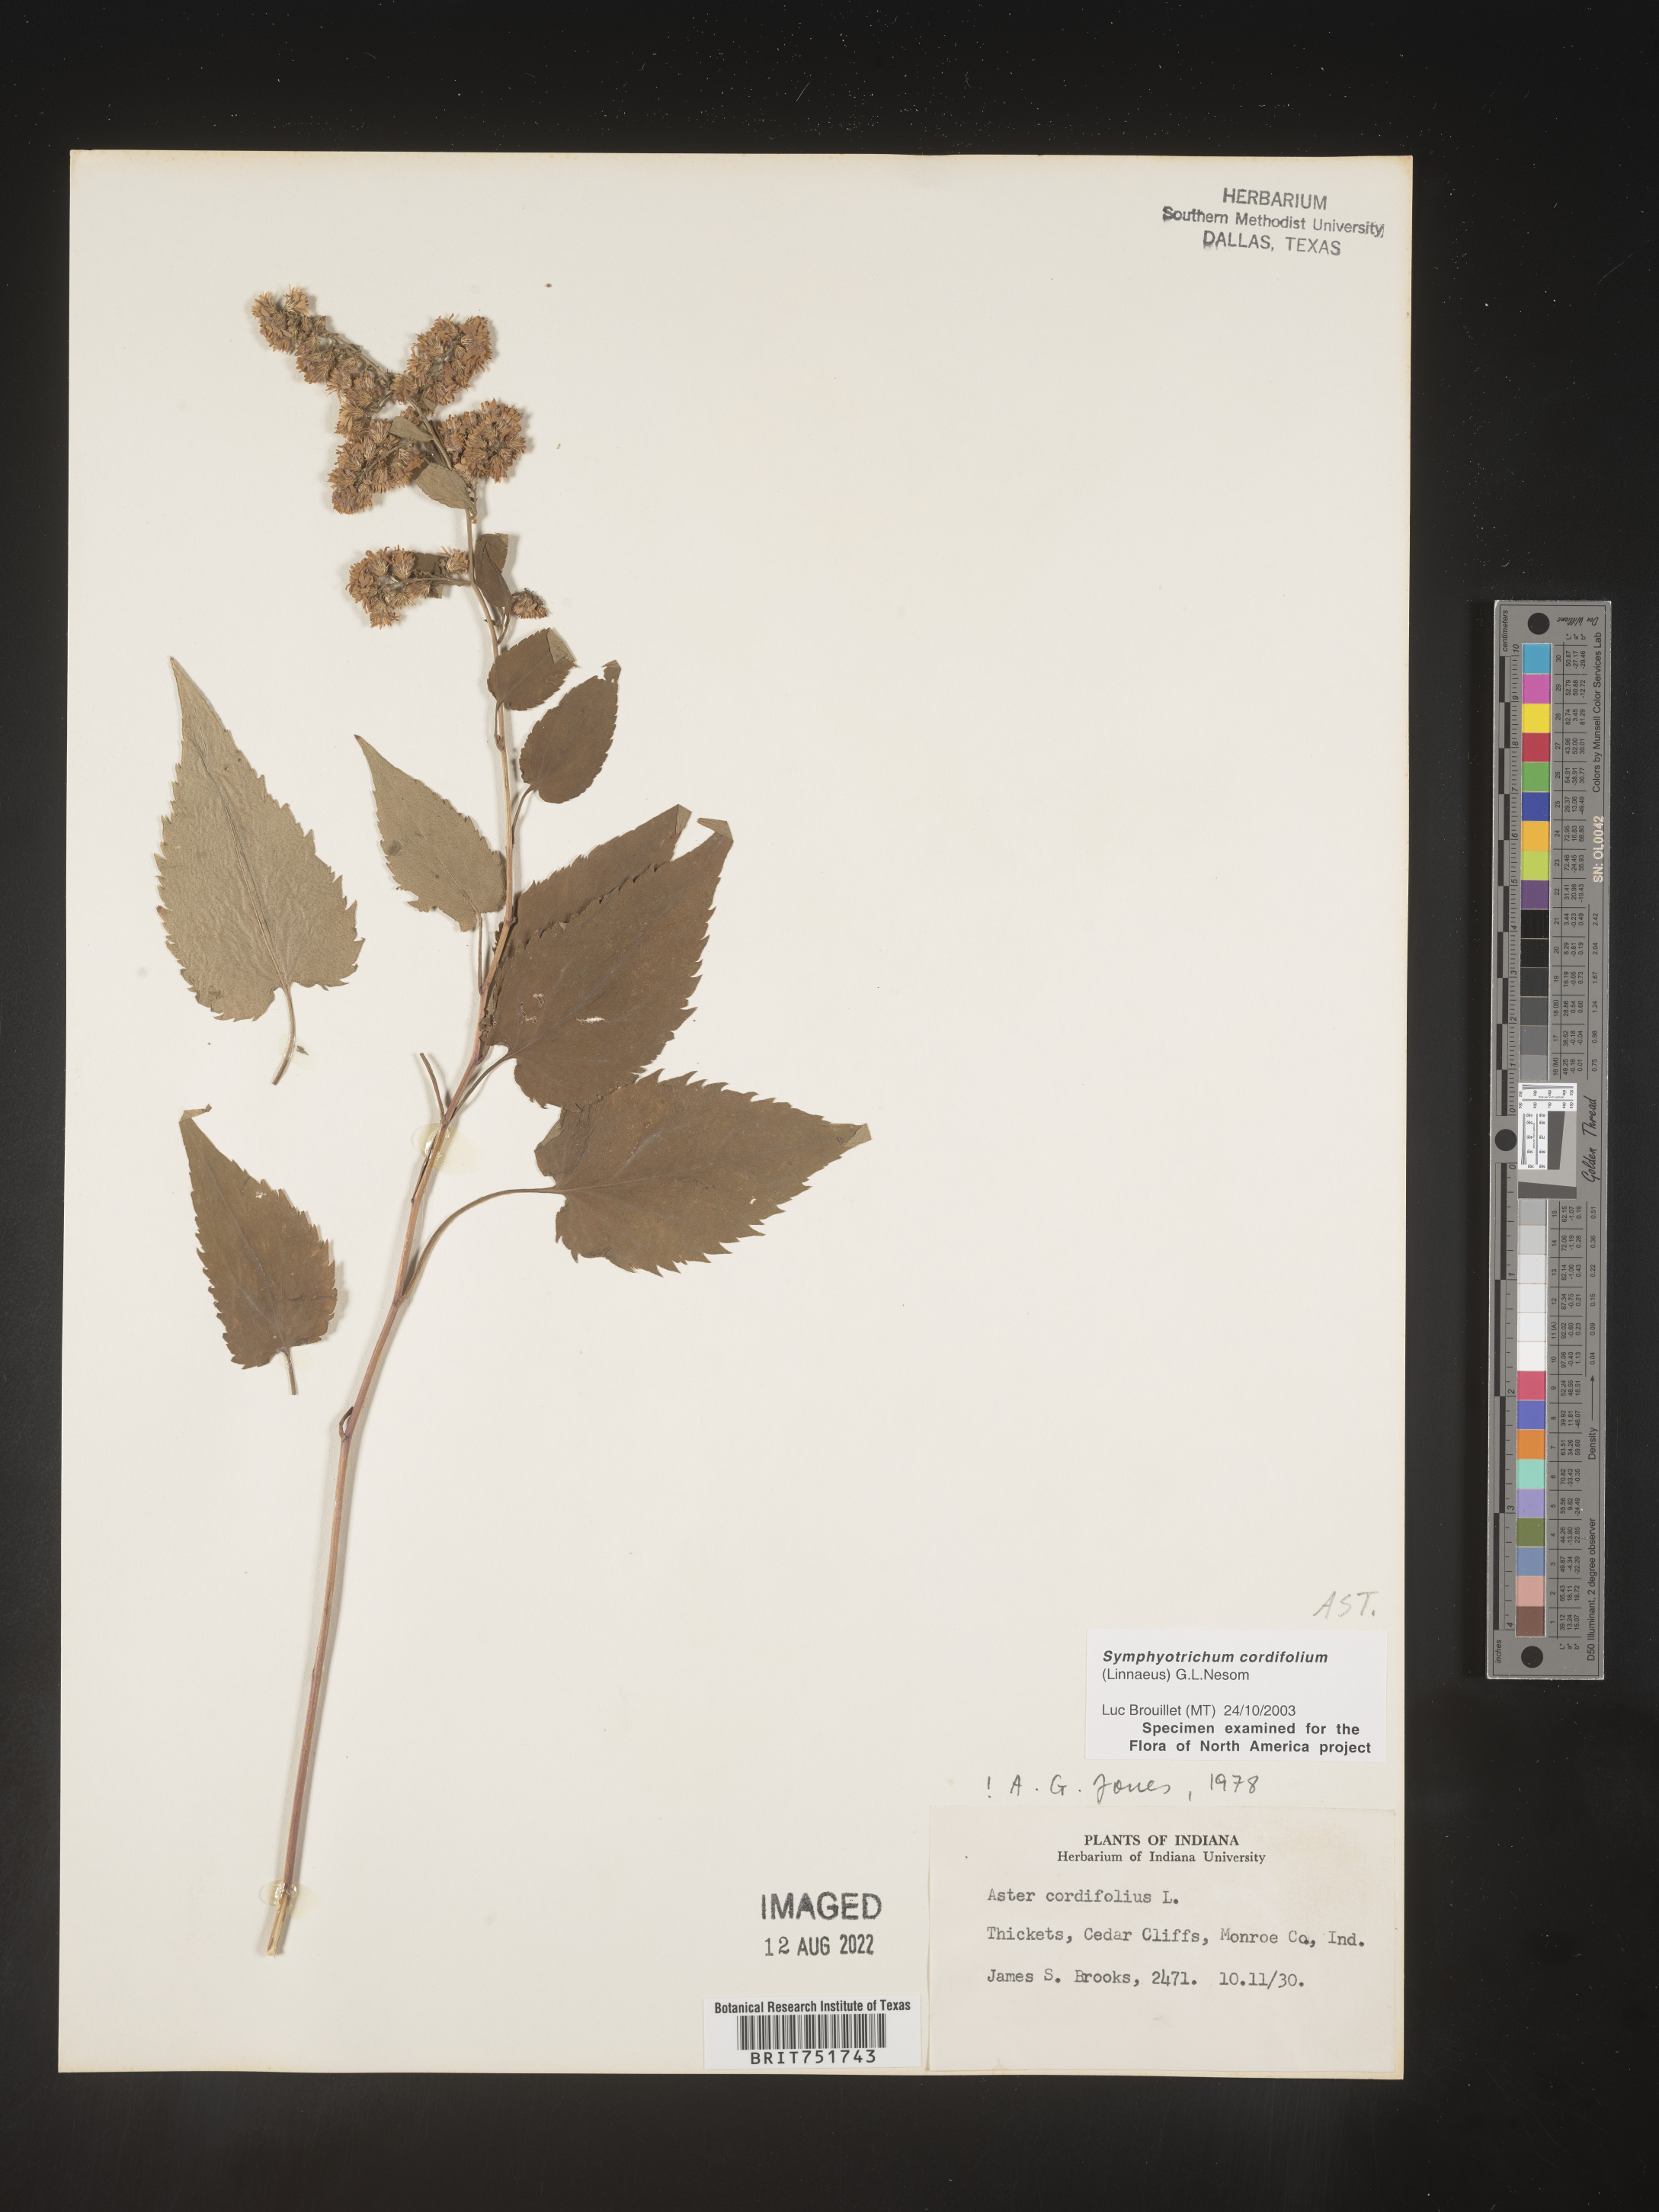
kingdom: Plantae
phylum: Tracheophyta
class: Magnoliopsida
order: Asterales
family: Asteraceae
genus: Symphyotrichum
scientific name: Symphyotrichum cordifolium
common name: Beeweed
